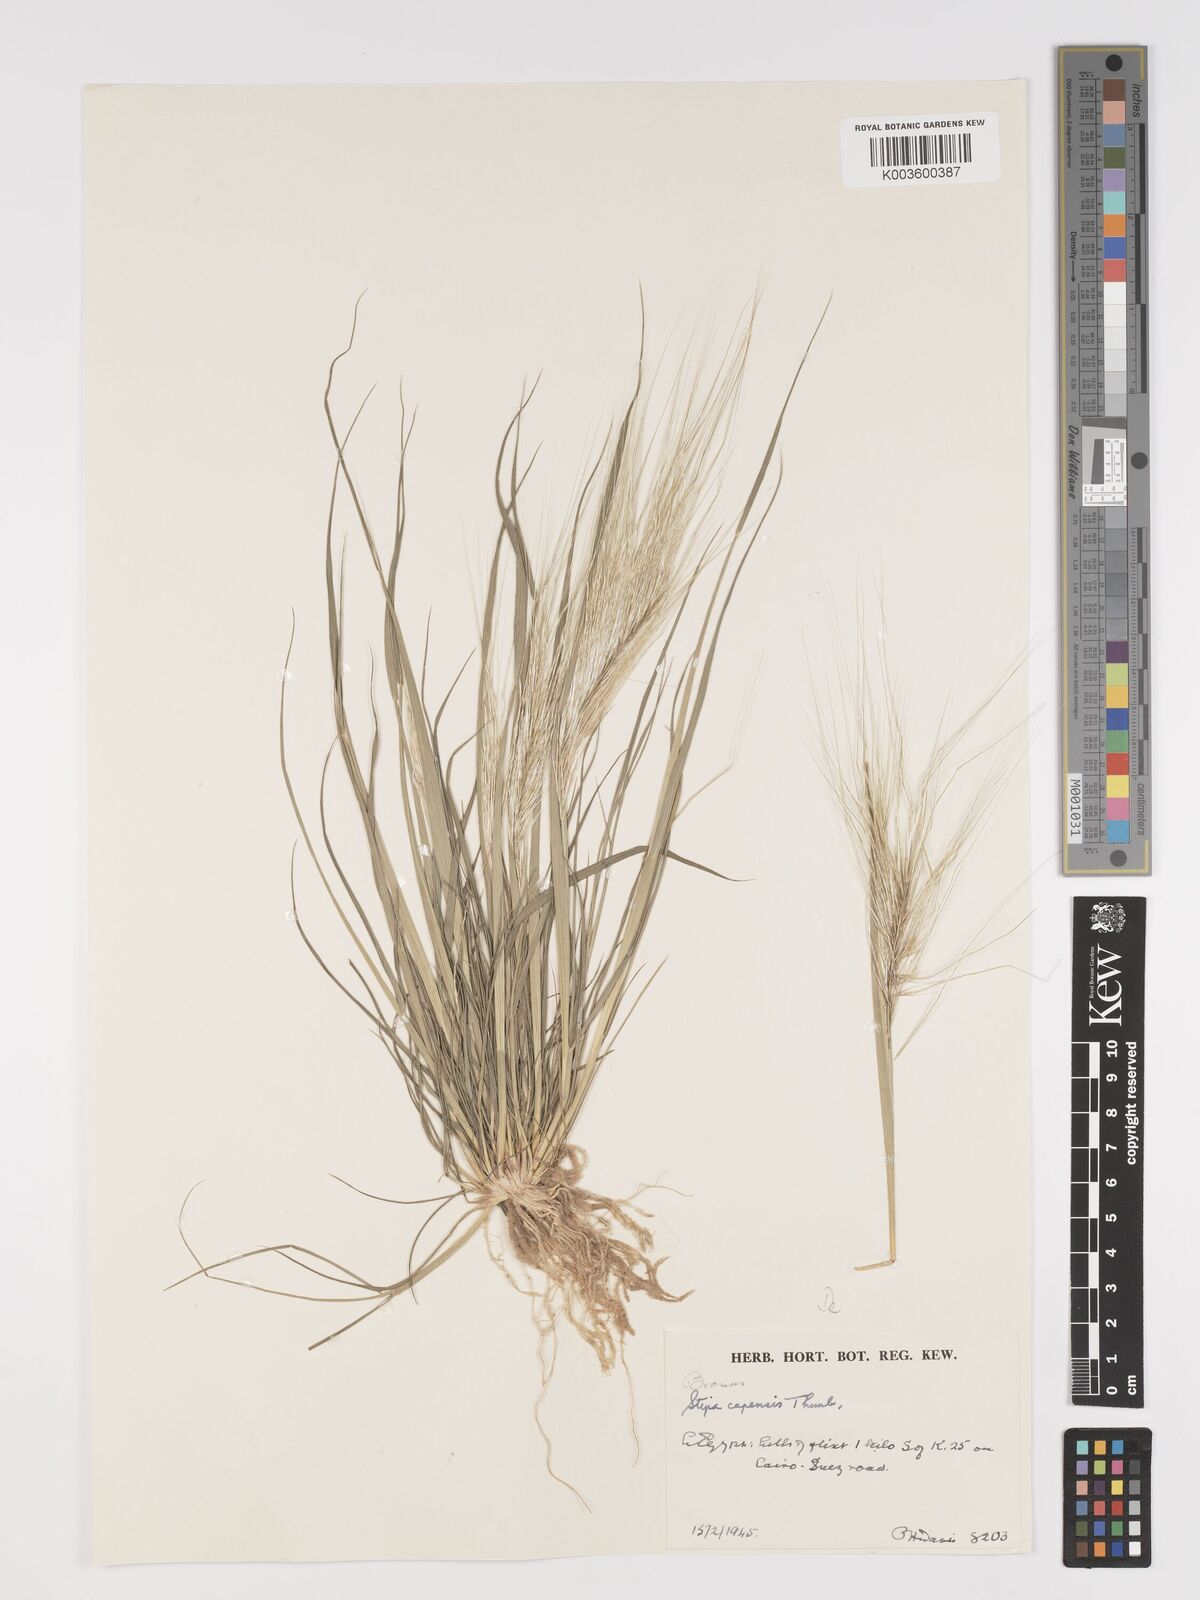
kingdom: Plantae
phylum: Tracheophyta
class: Liliopsida
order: Poales
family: Poaceae
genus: Stipellula
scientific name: Stipellula capensis
